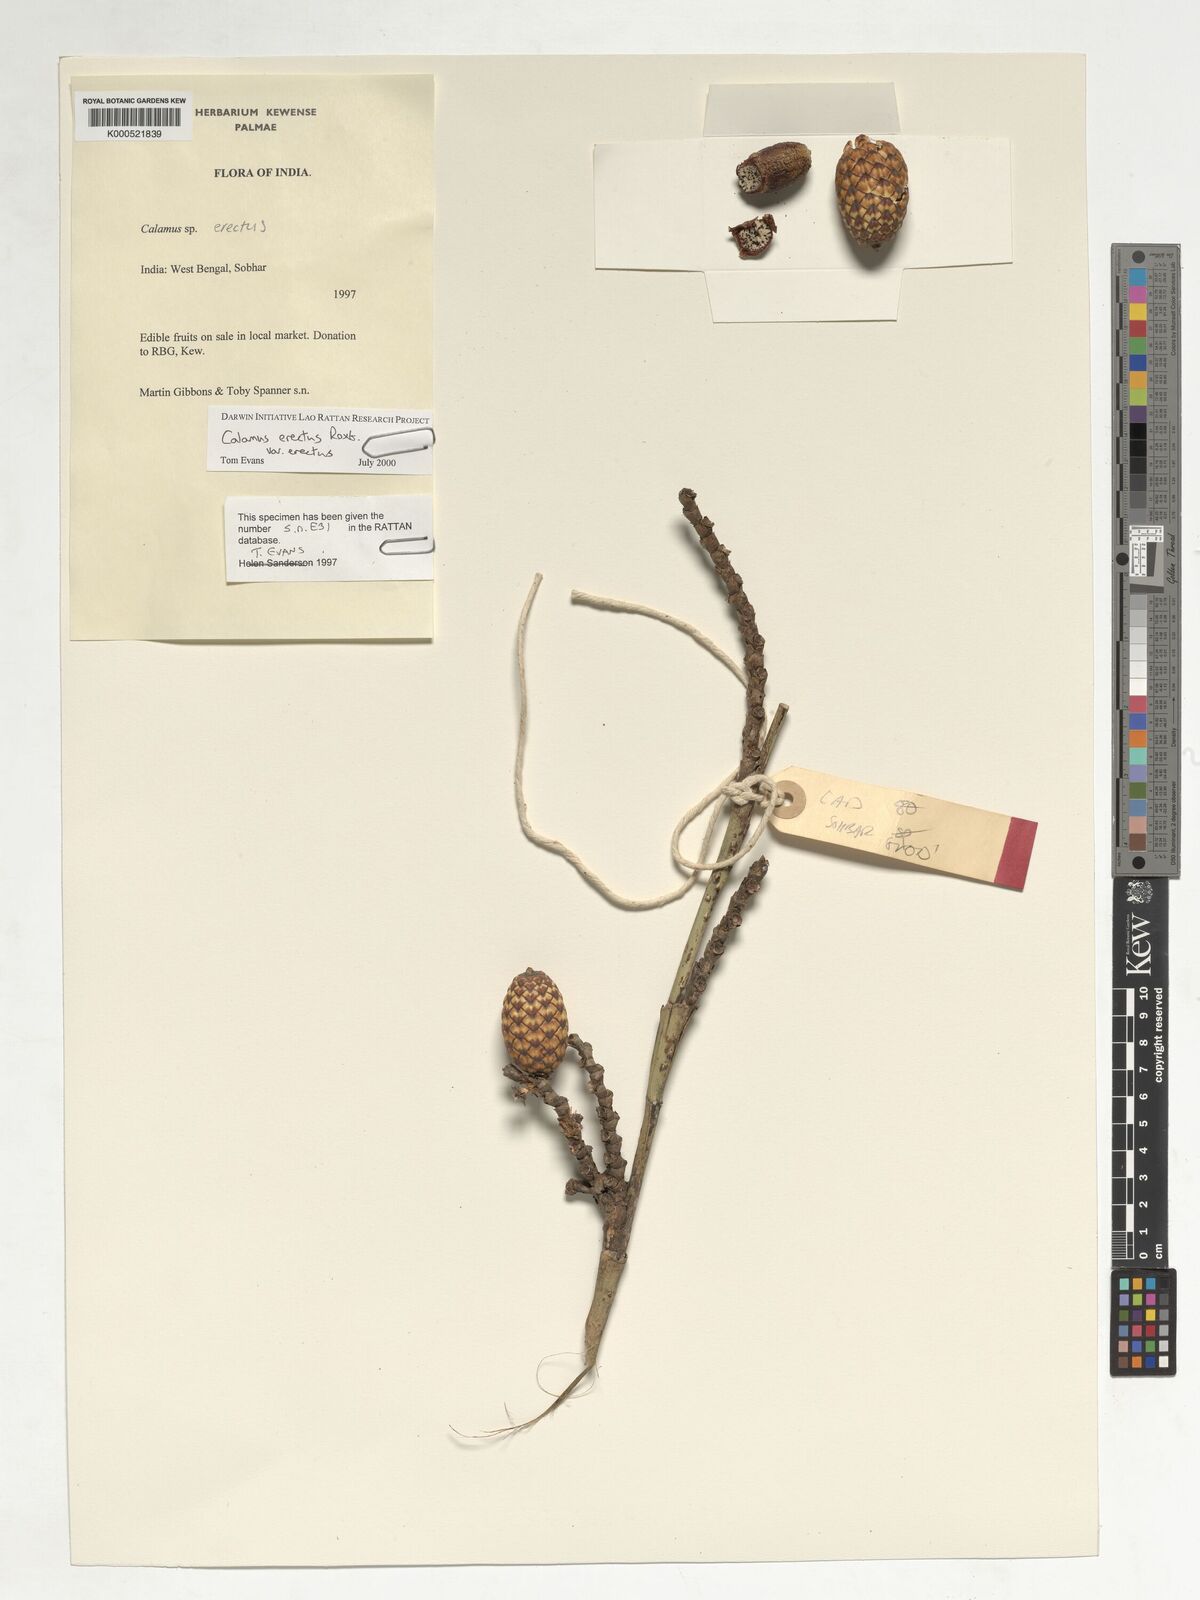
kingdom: Plantae
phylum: Tracheophyta
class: Liliopsida
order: Arecales
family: Arecaceae
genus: Calamus
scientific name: Calamus erectus
